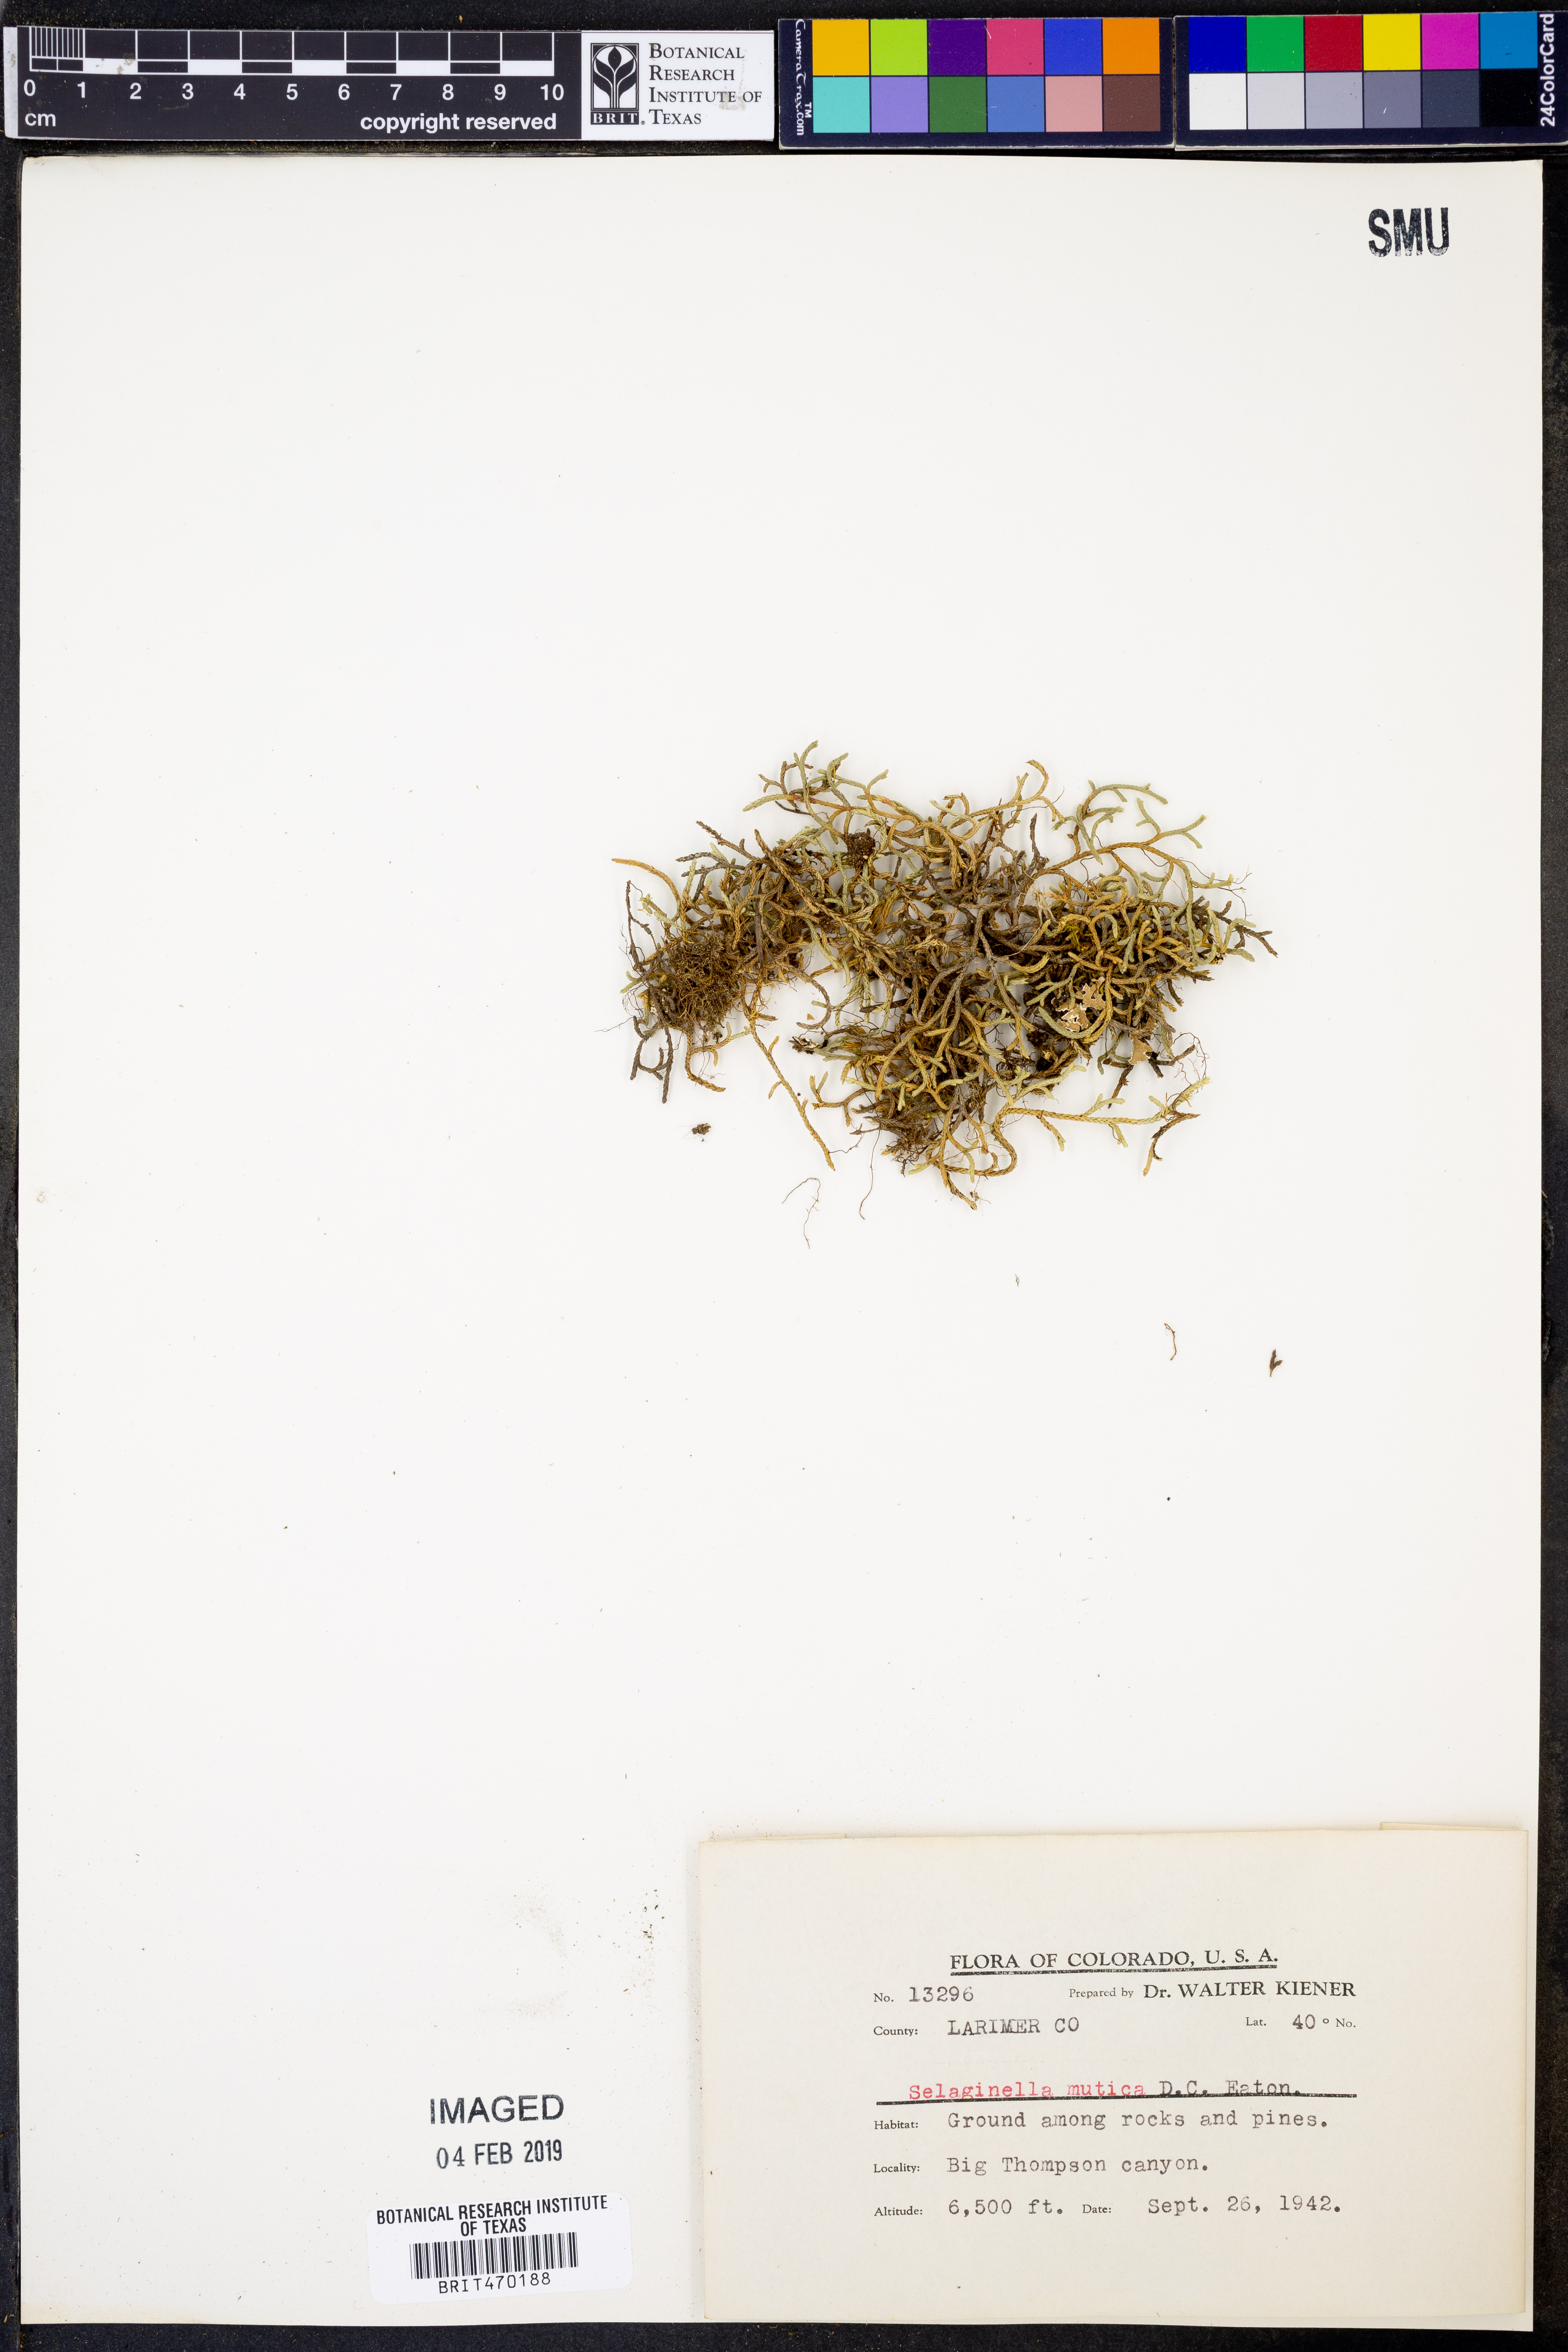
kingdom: Plantae
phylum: Tracheophyta
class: Lycopodiopsida
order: Selaginellales
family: Selaginellaceae
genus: Selaginella
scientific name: Selaginella mutica
